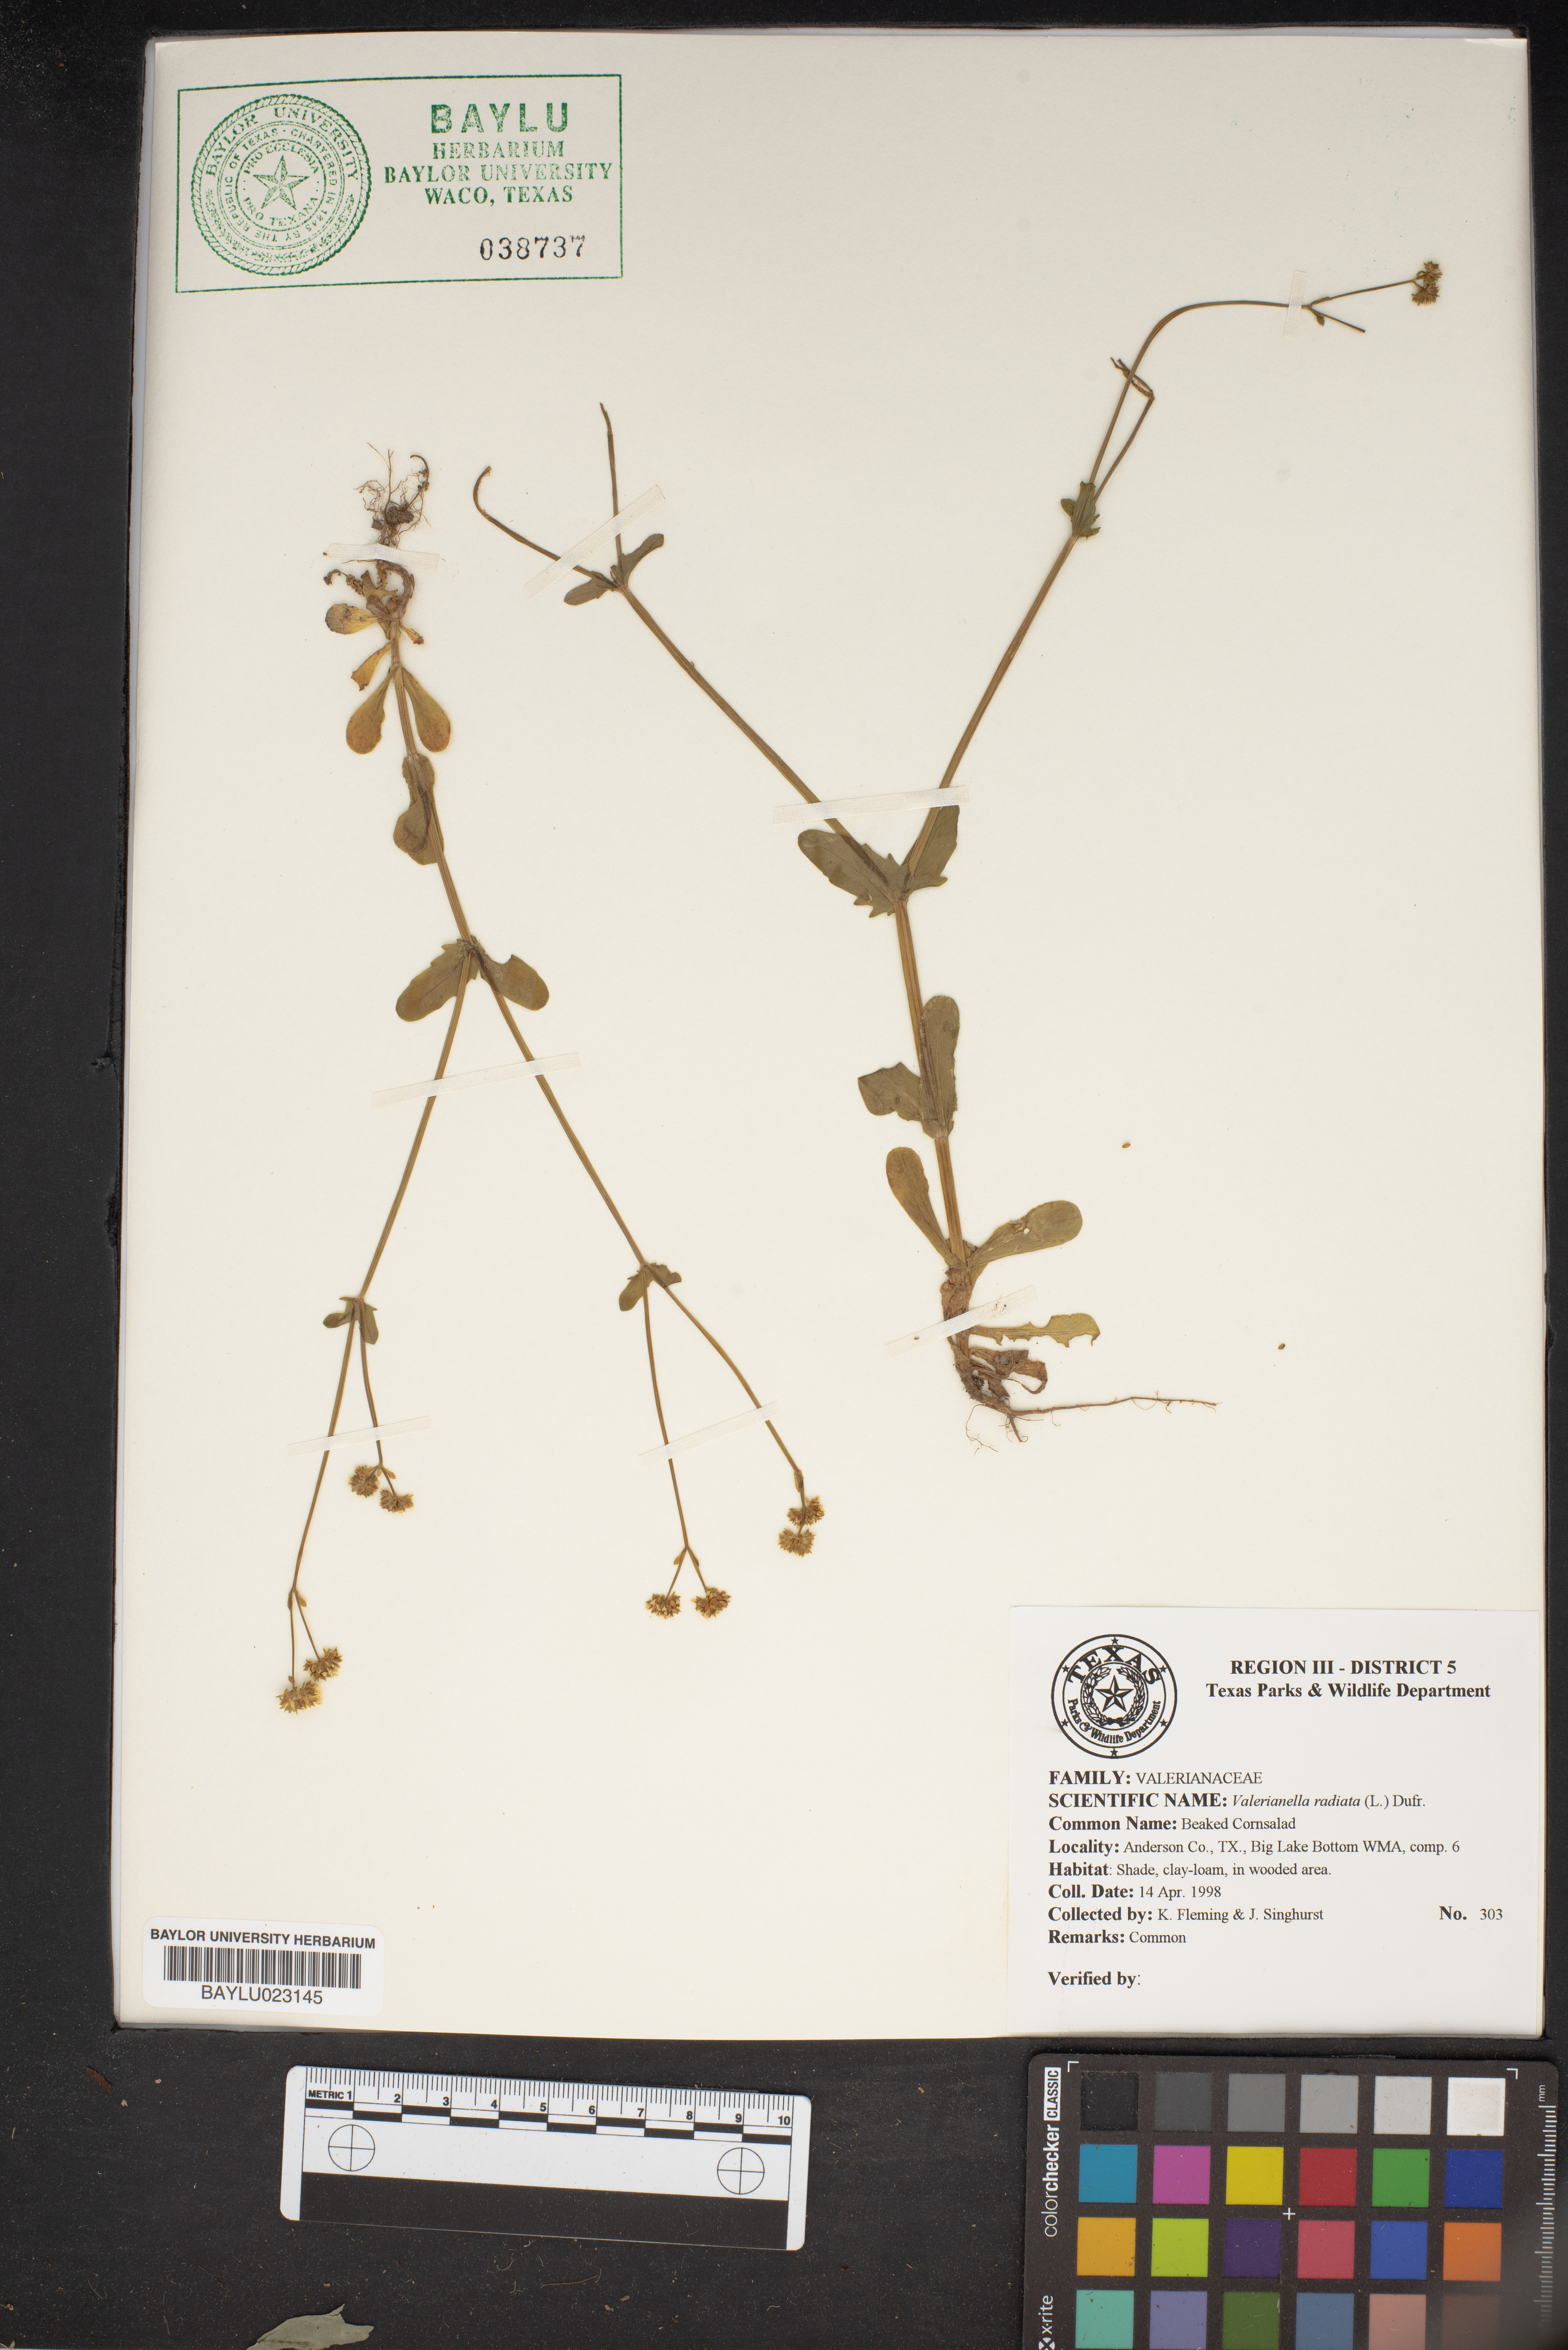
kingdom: Plantae
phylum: Tracheophyta
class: Magnoliopsida
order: Dipsacales
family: Caprifoliaceae
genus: Valerianella
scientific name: Valerianella radiata
